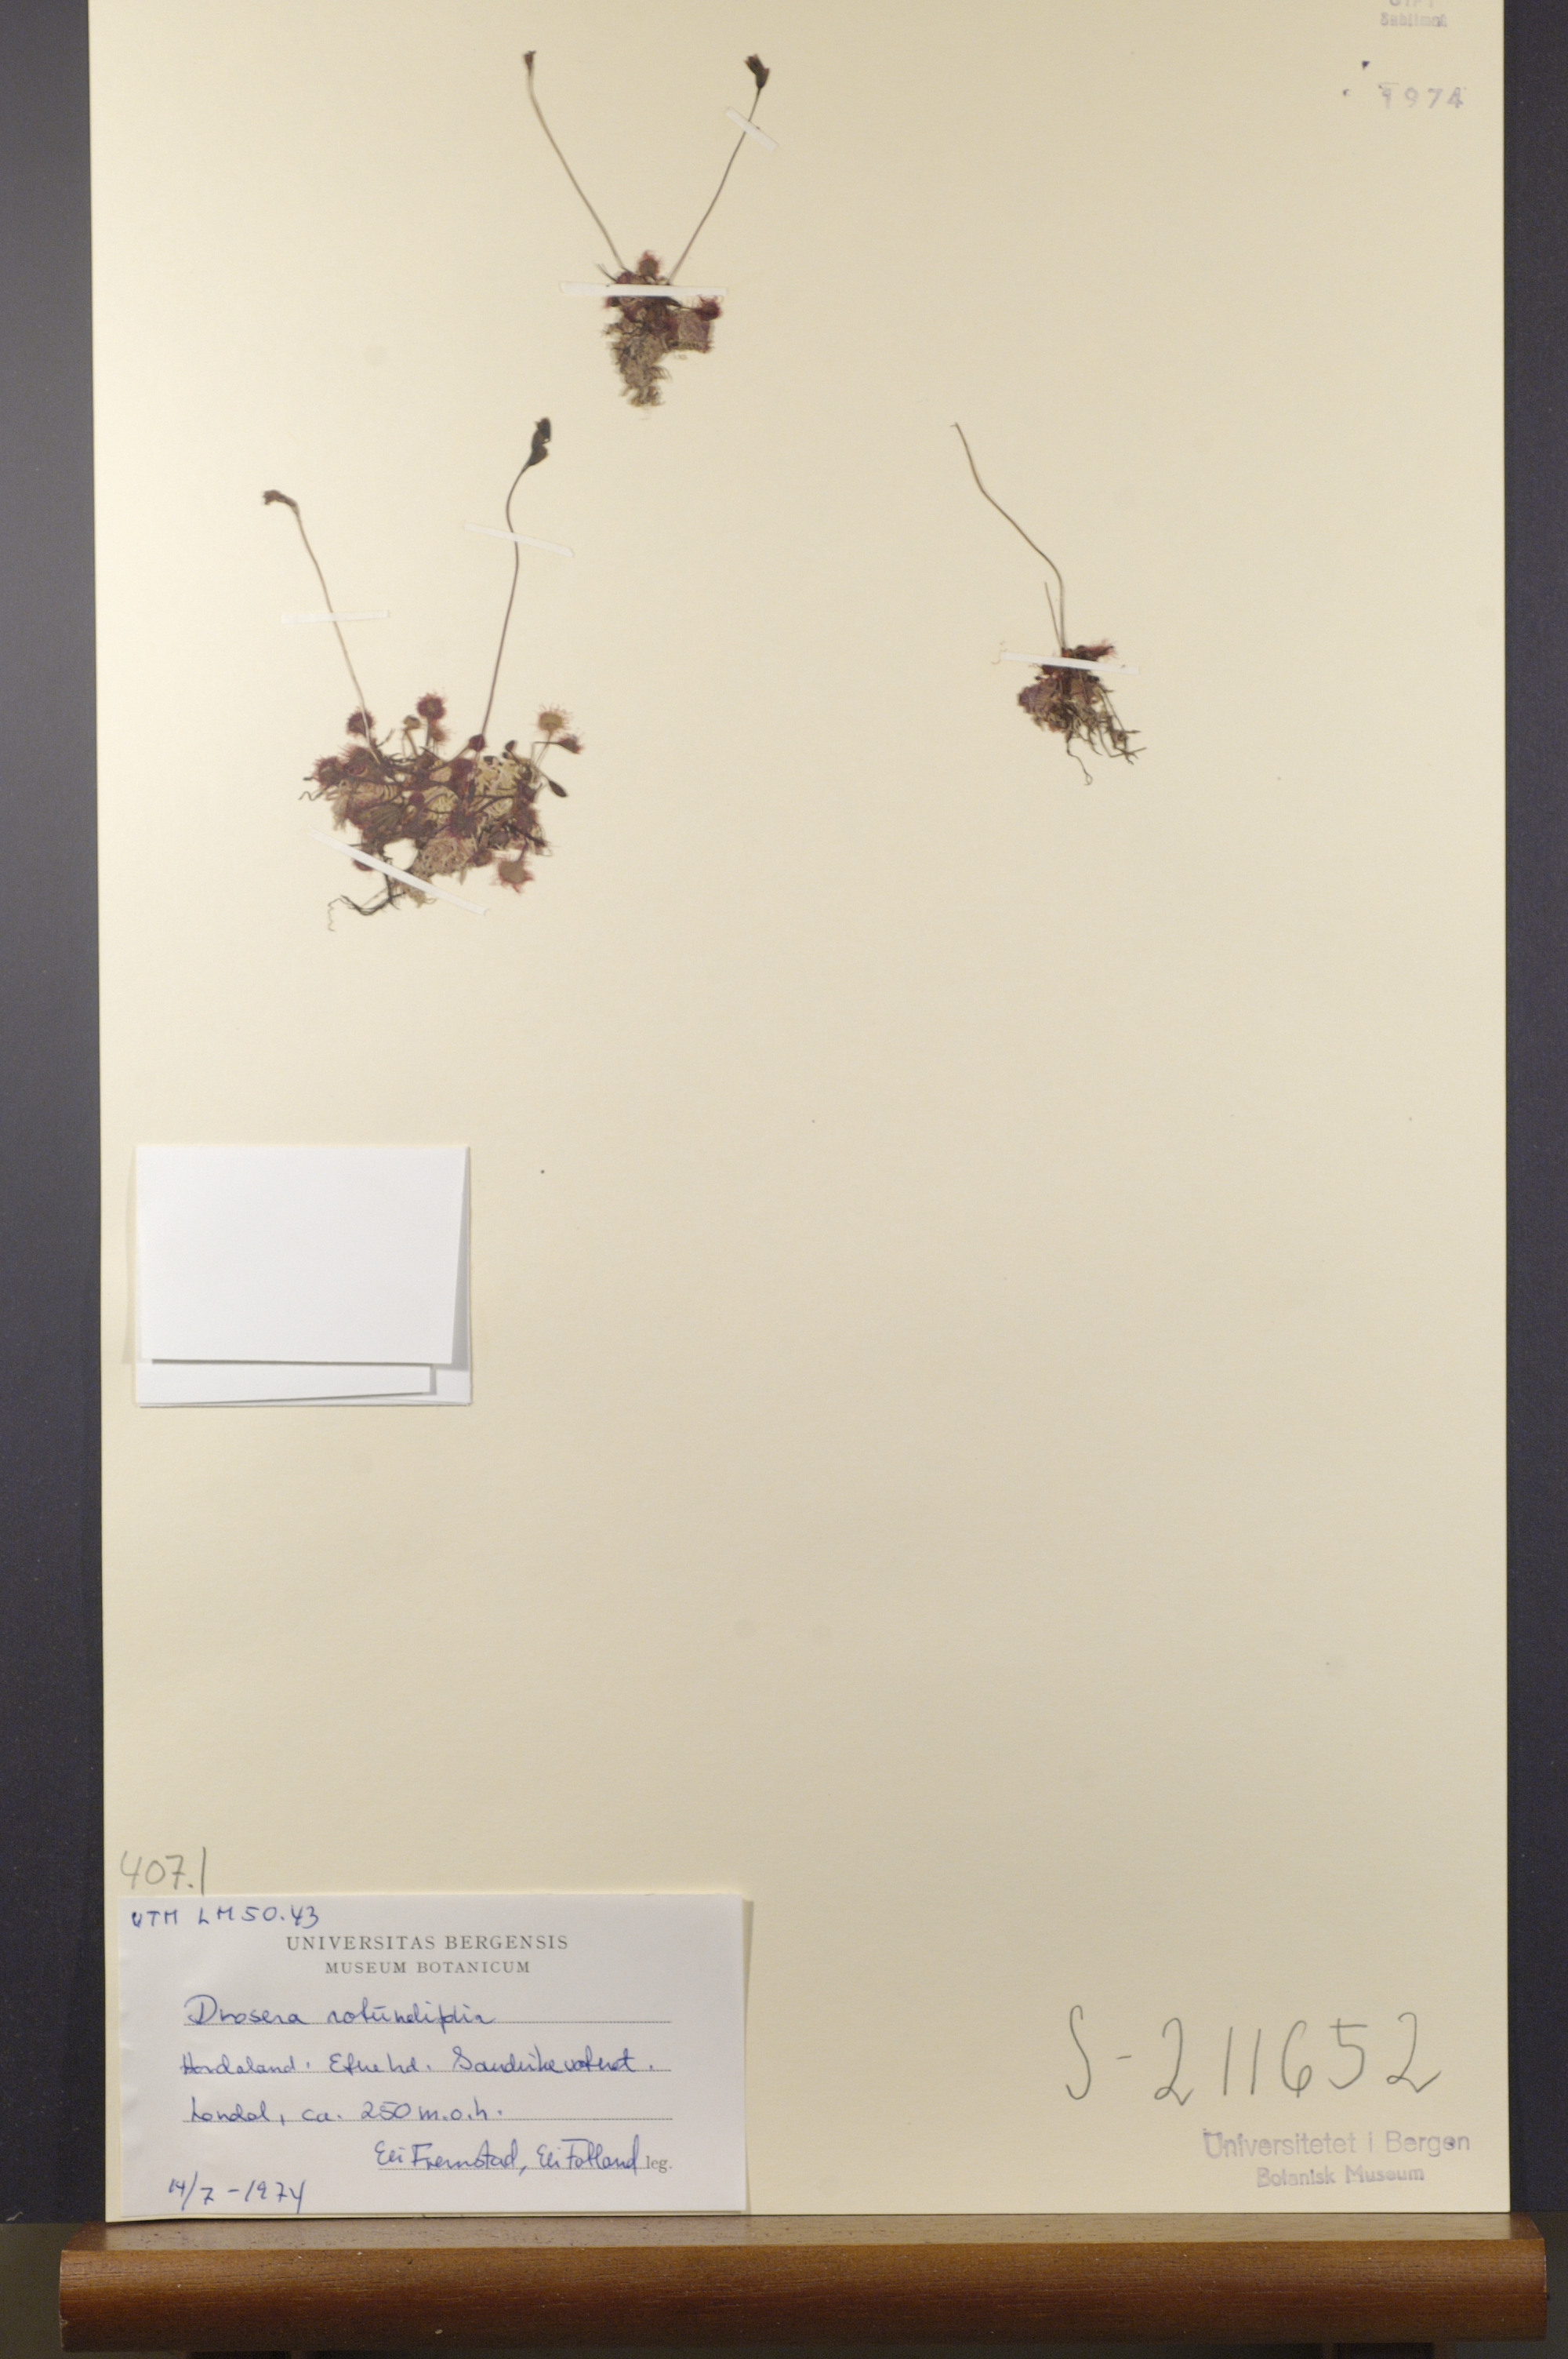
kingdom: Plantae
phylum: Tracheophyta
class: Magnoliopsida
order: Caryophyllales
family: Droseraceae
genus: Drosera
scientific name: Drosera rotundifolia
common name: Round-leaved sundew
